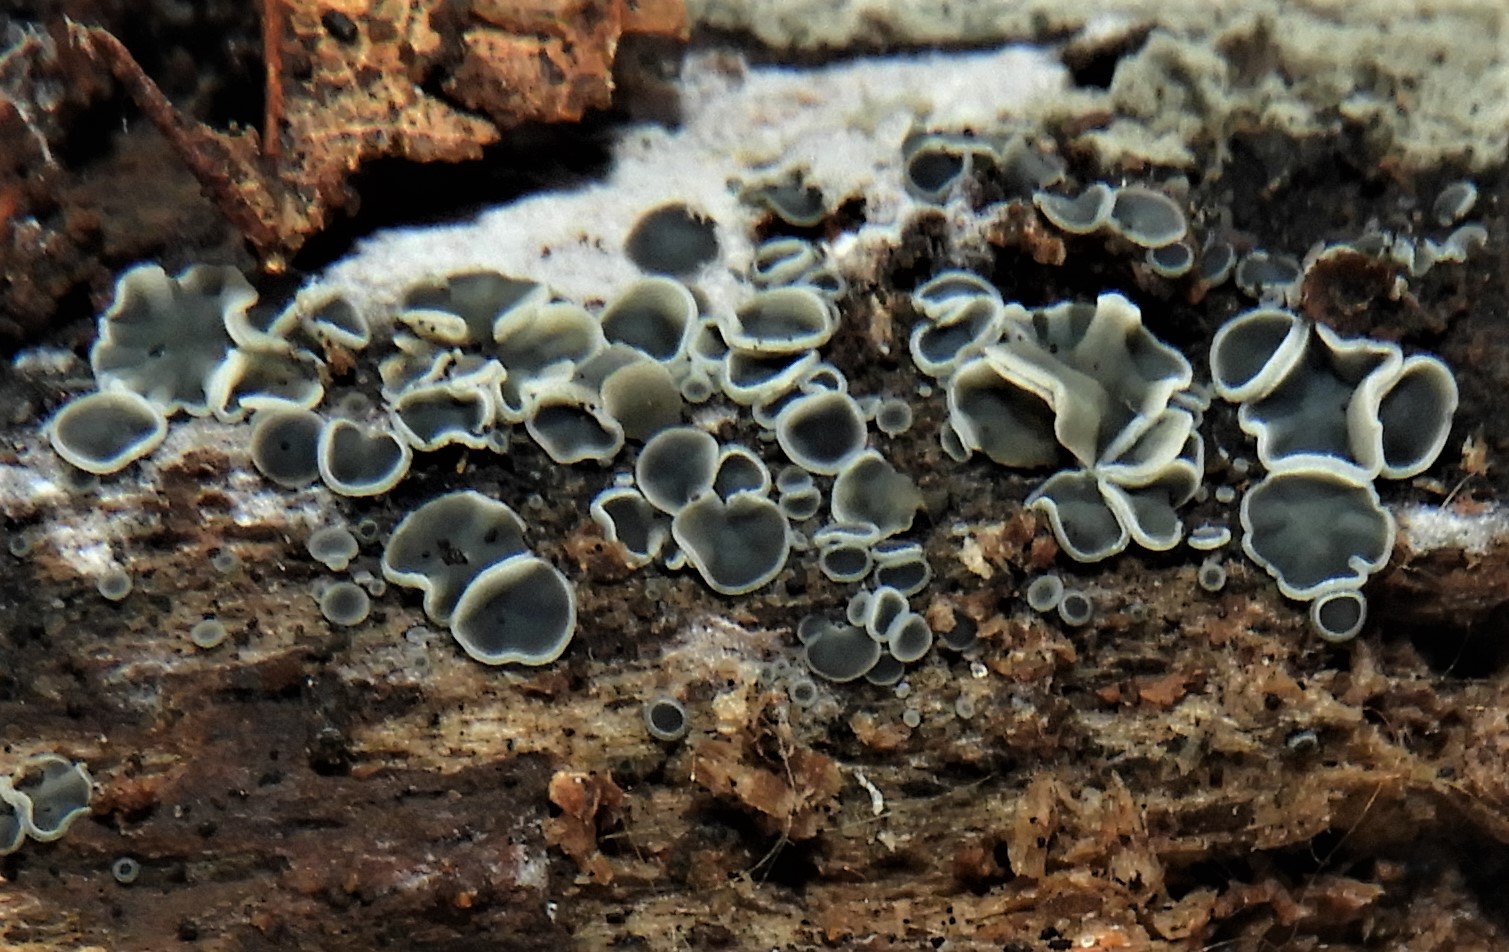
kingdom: Fungi
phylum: Ascomycota
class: Leotiomycetes
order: Helotiales
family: Mollisiaceae
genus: Mollisia
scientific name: Mollisia cinerea
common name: almindelig gråskive
